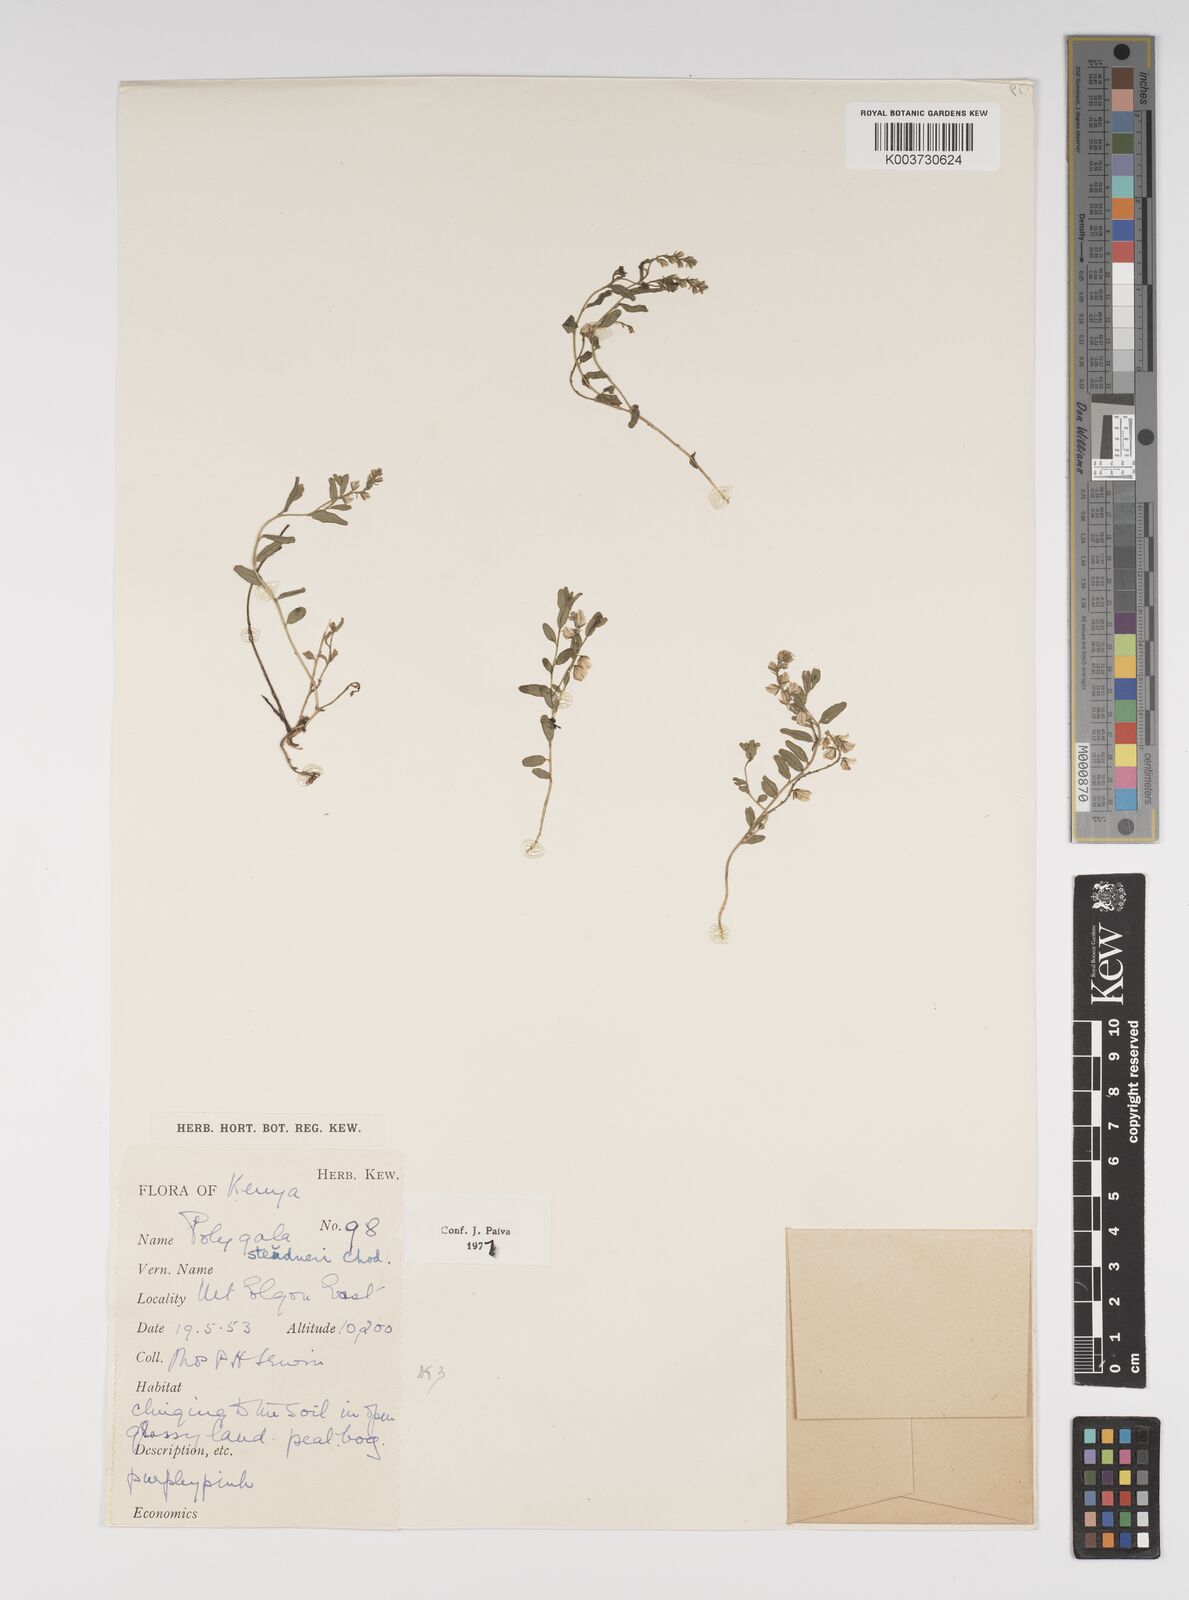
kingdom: Plantae
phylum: Tracheophyta
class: Magnoliopsida
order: Fabales
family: Polygalaceae
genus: Polygala
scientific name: Polygala steudneri
